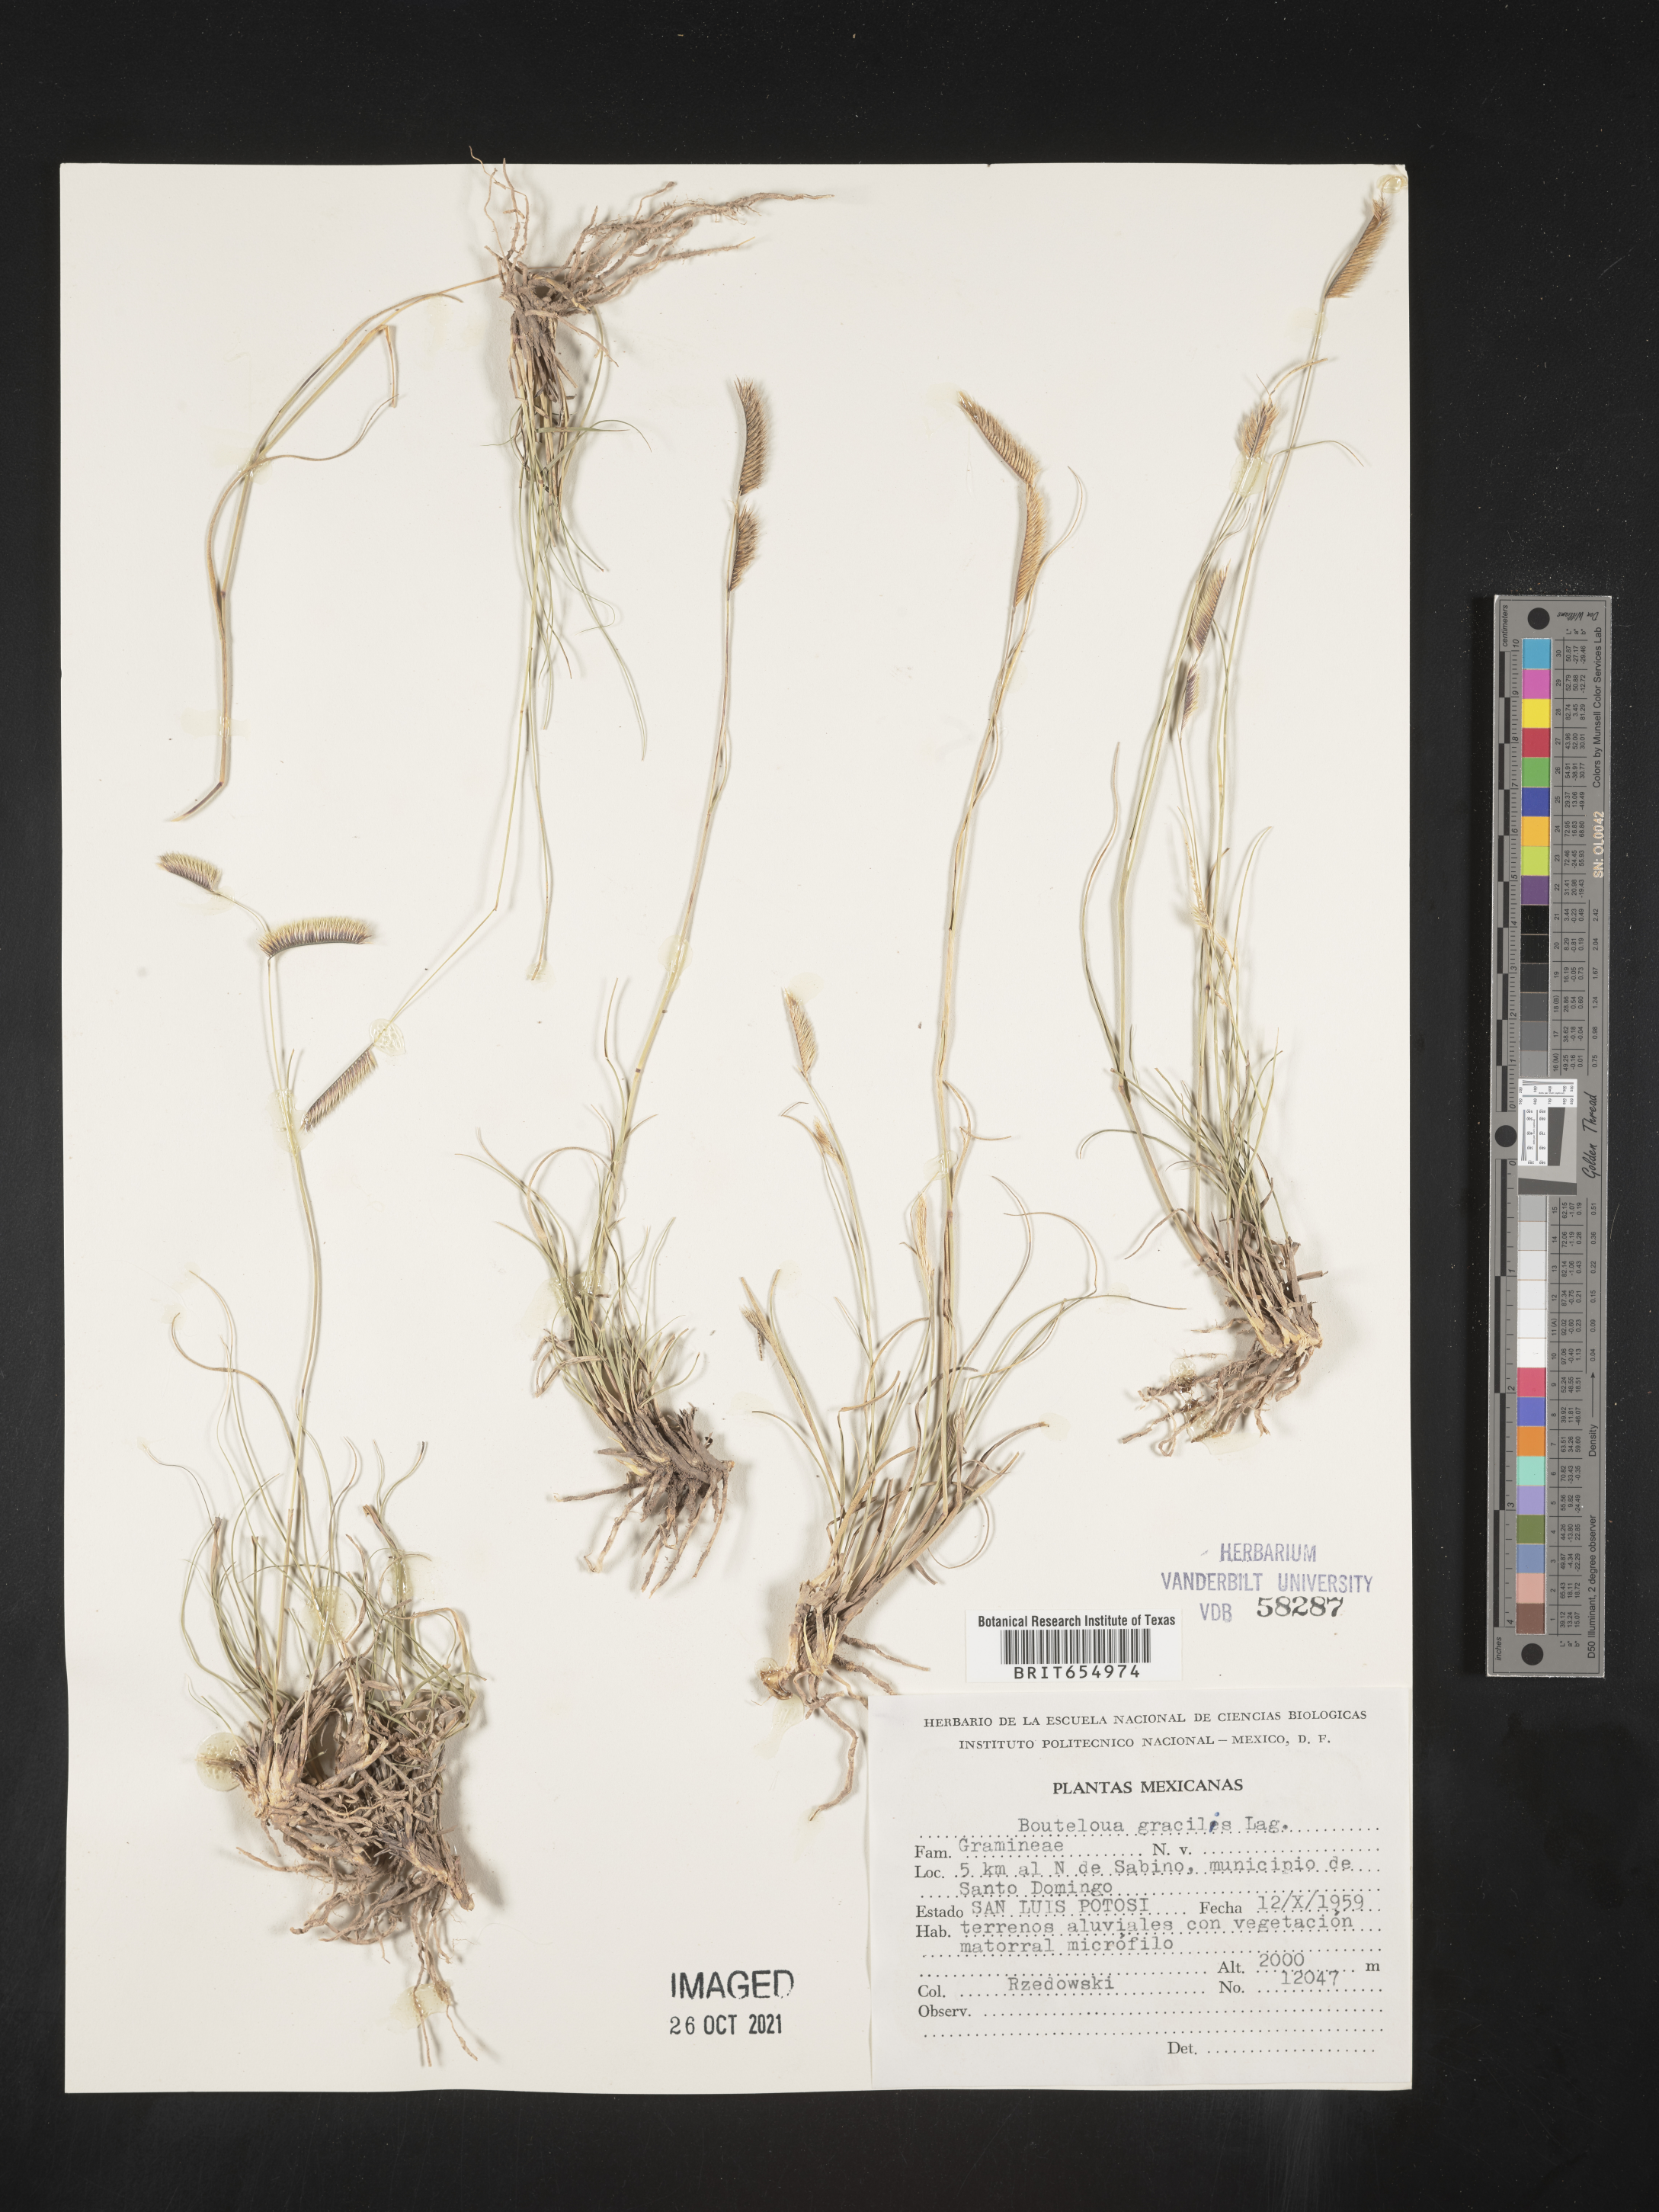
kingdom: Plantae
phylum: Tracheophyta
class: Liliopsida
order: Poales
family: Poaceae
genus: Bouteloua
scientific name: Bouteloua
